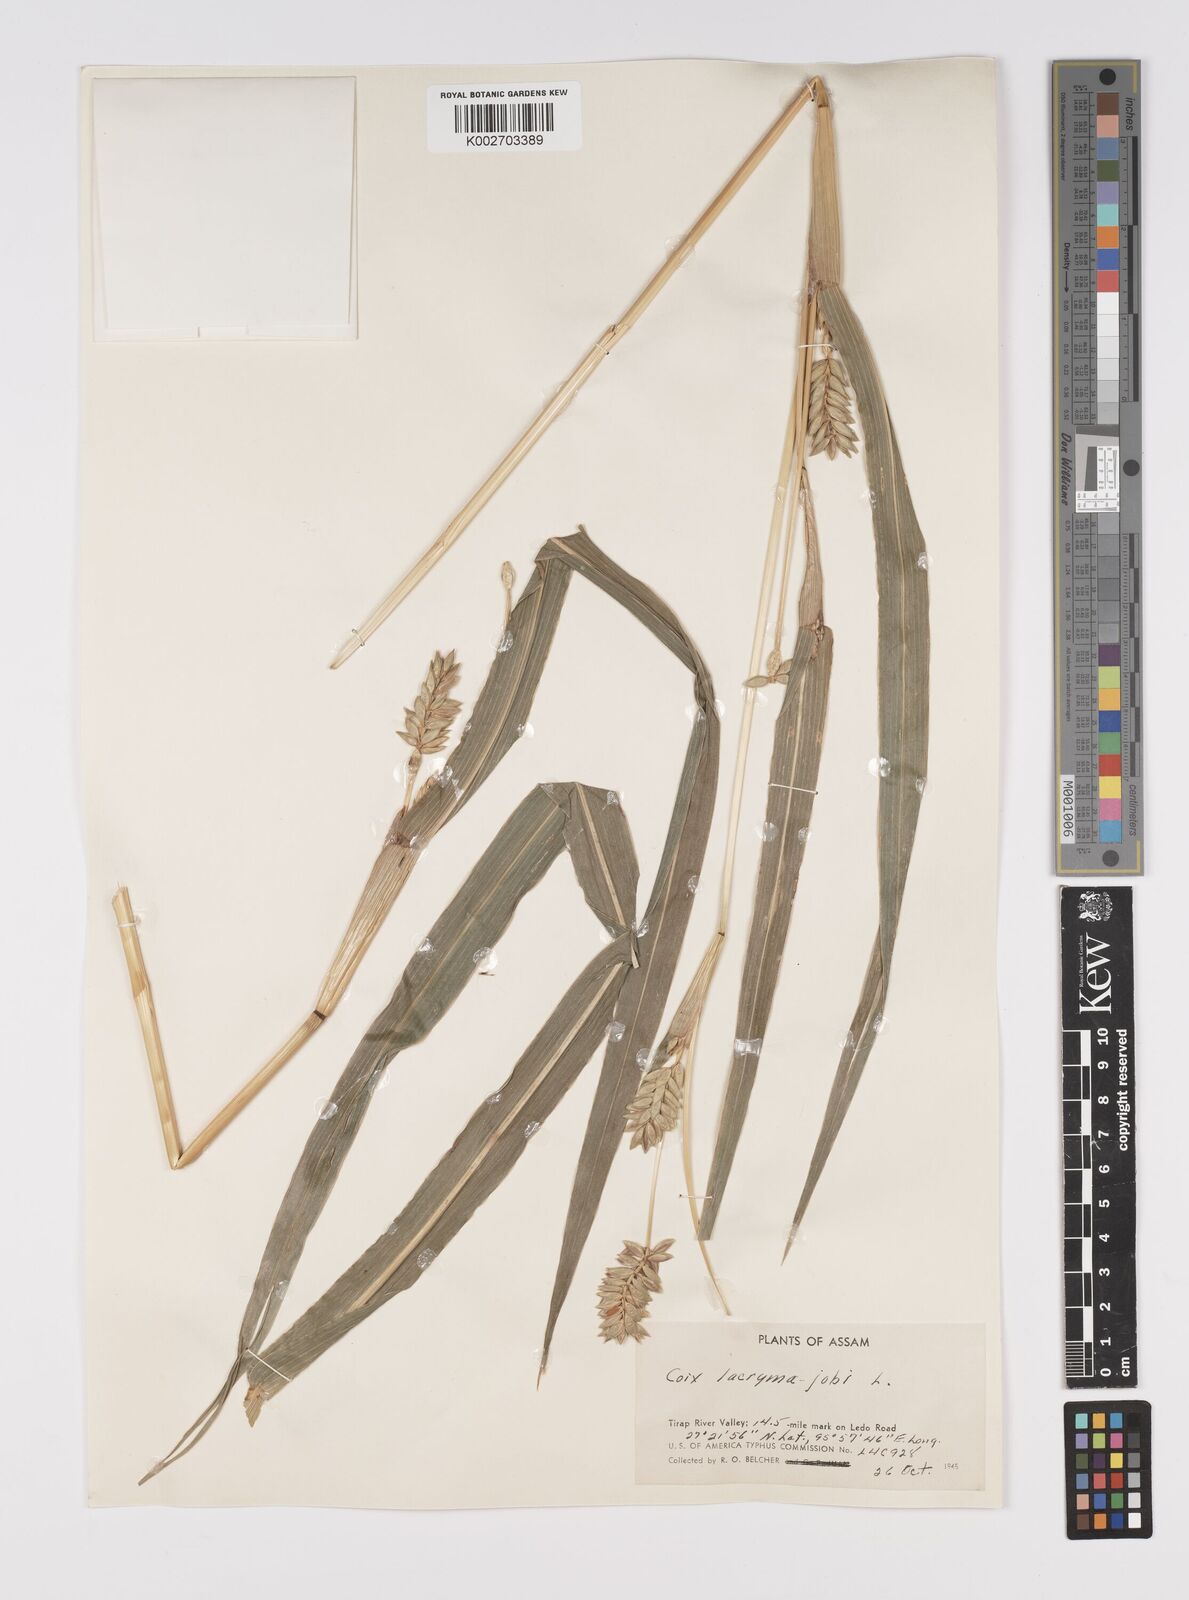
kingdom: Plantae
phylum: Tracheophyta
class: Liliopsida
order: Poales
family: Poaceae
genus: Coix
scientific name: Coix lacryma-jobi
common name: Job's tears
